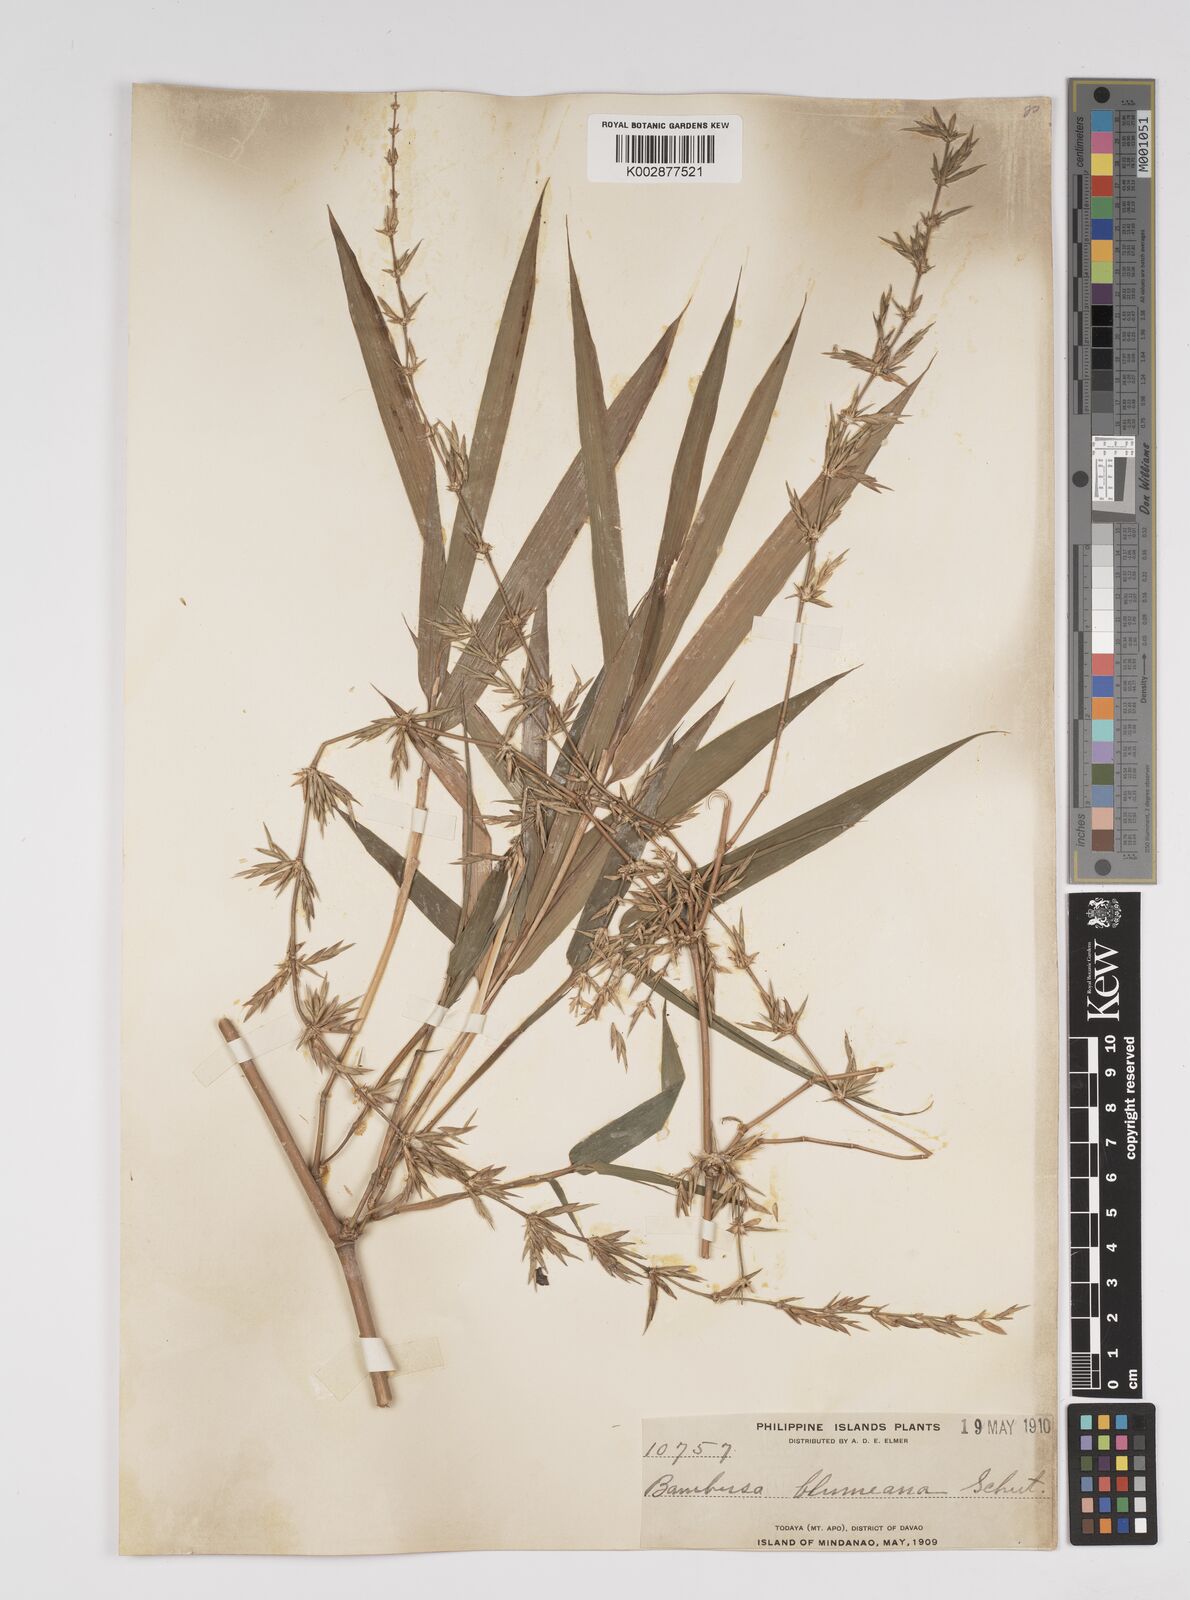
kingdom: Plantae
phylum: Tracheophyta
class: Liliopsida
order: Poales
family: Poaceae
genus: Bambusa
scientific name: Bambusa spinosa
